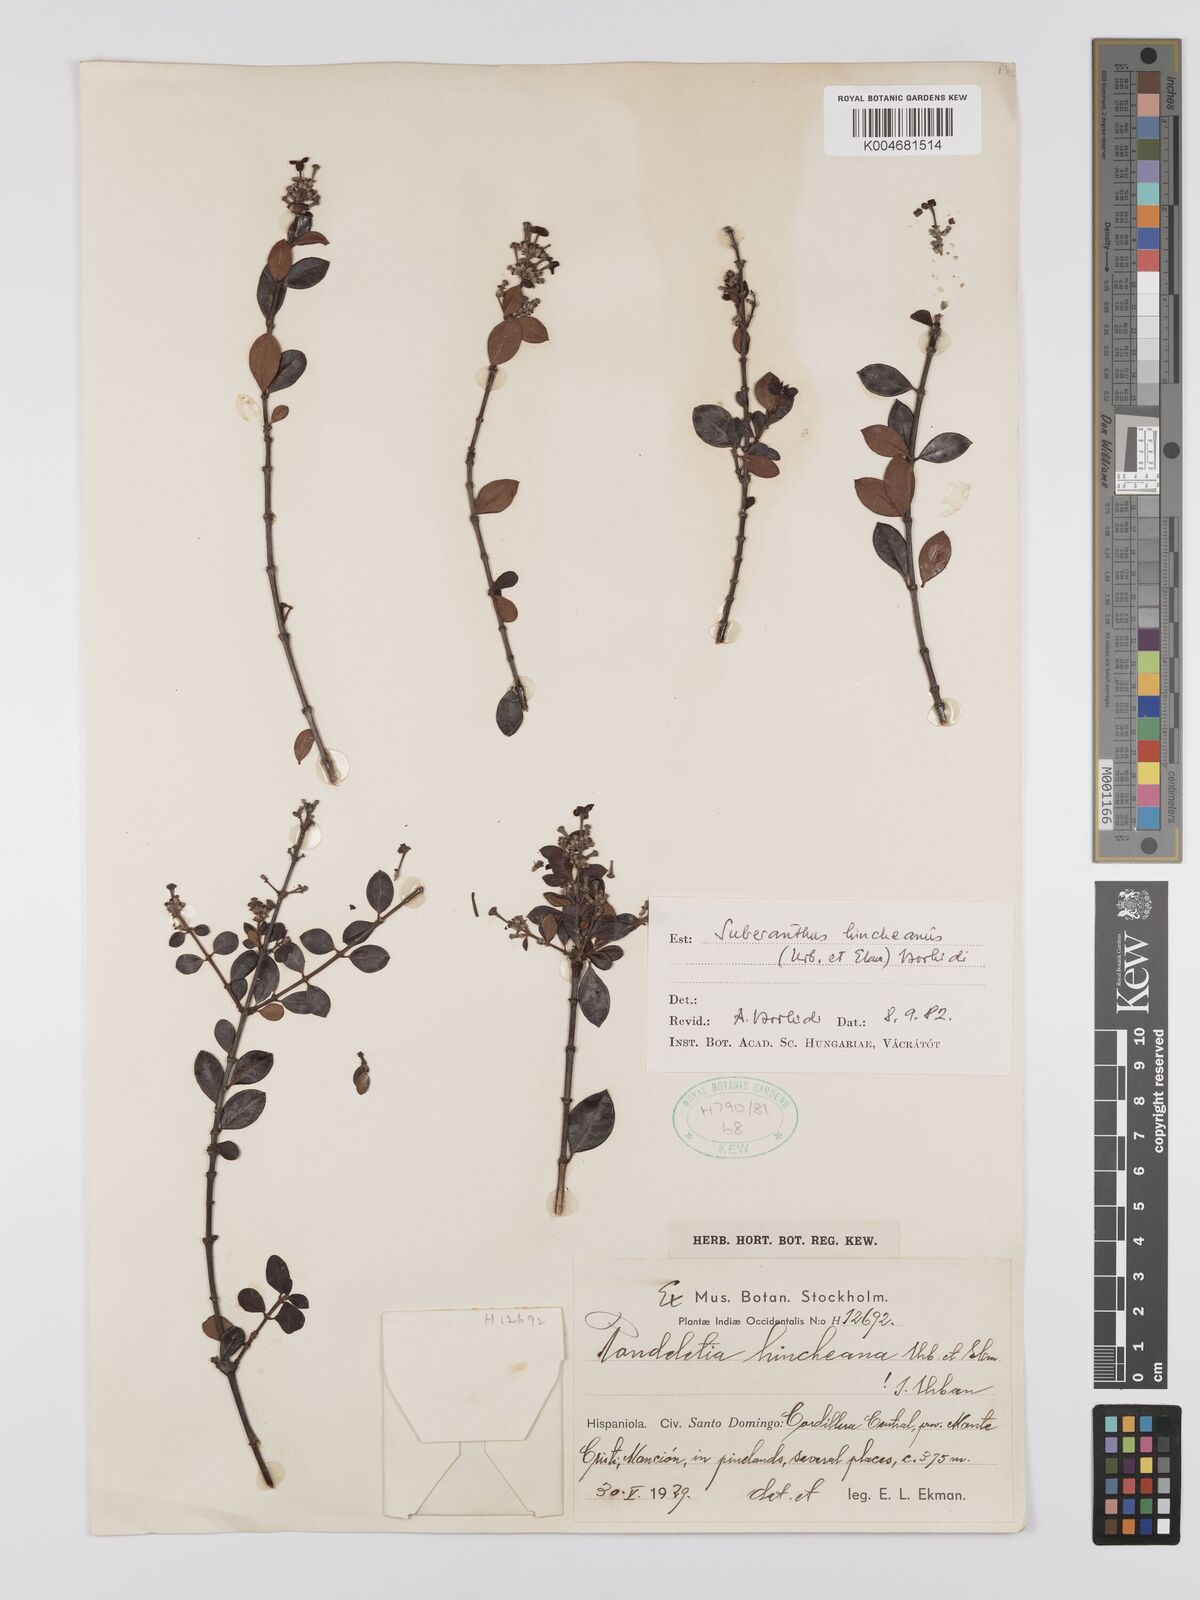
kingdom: Plantae
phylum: Tracheophyta
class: Magnoliopsida
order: Gentianales
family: Rubiaceae
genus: Suberanthus
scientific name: Suberanthus hincheanus
